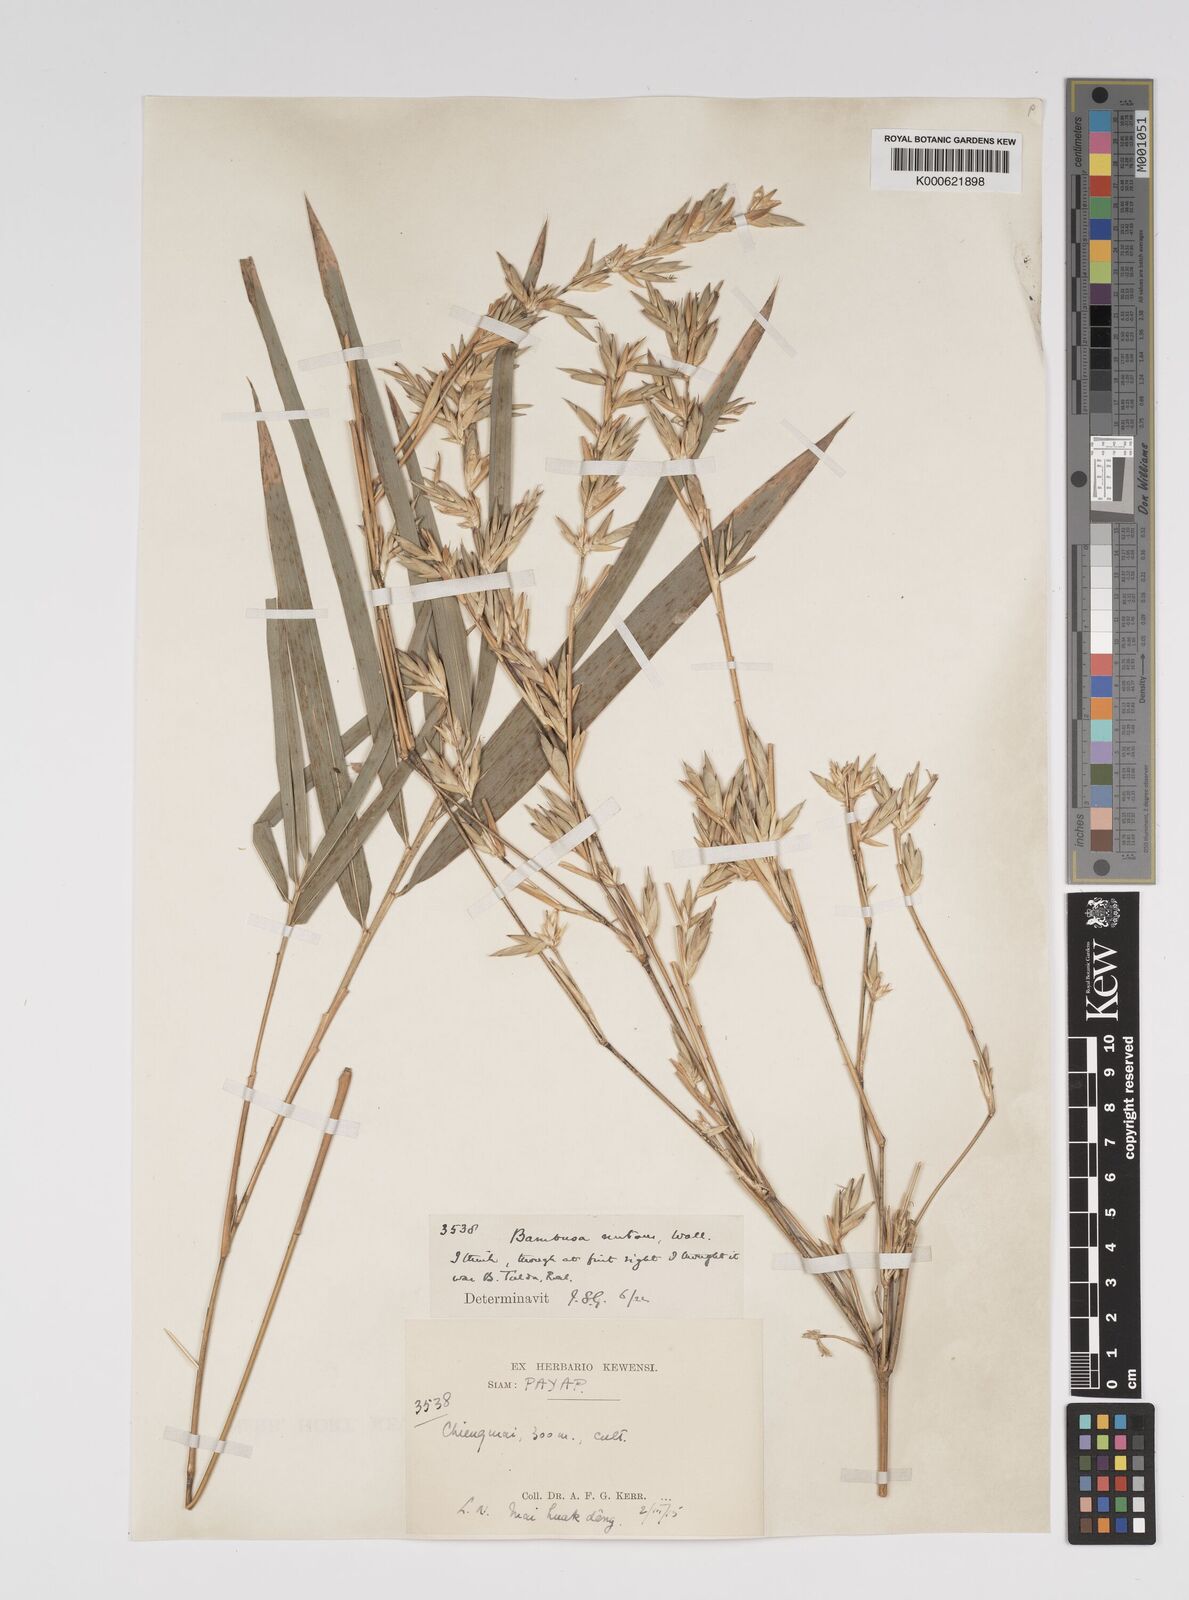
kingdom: Plantae
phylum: Tracheophyta
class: Liliopsida
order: Poales
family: Poaceae
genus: Bambusa
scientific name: Bambusa
